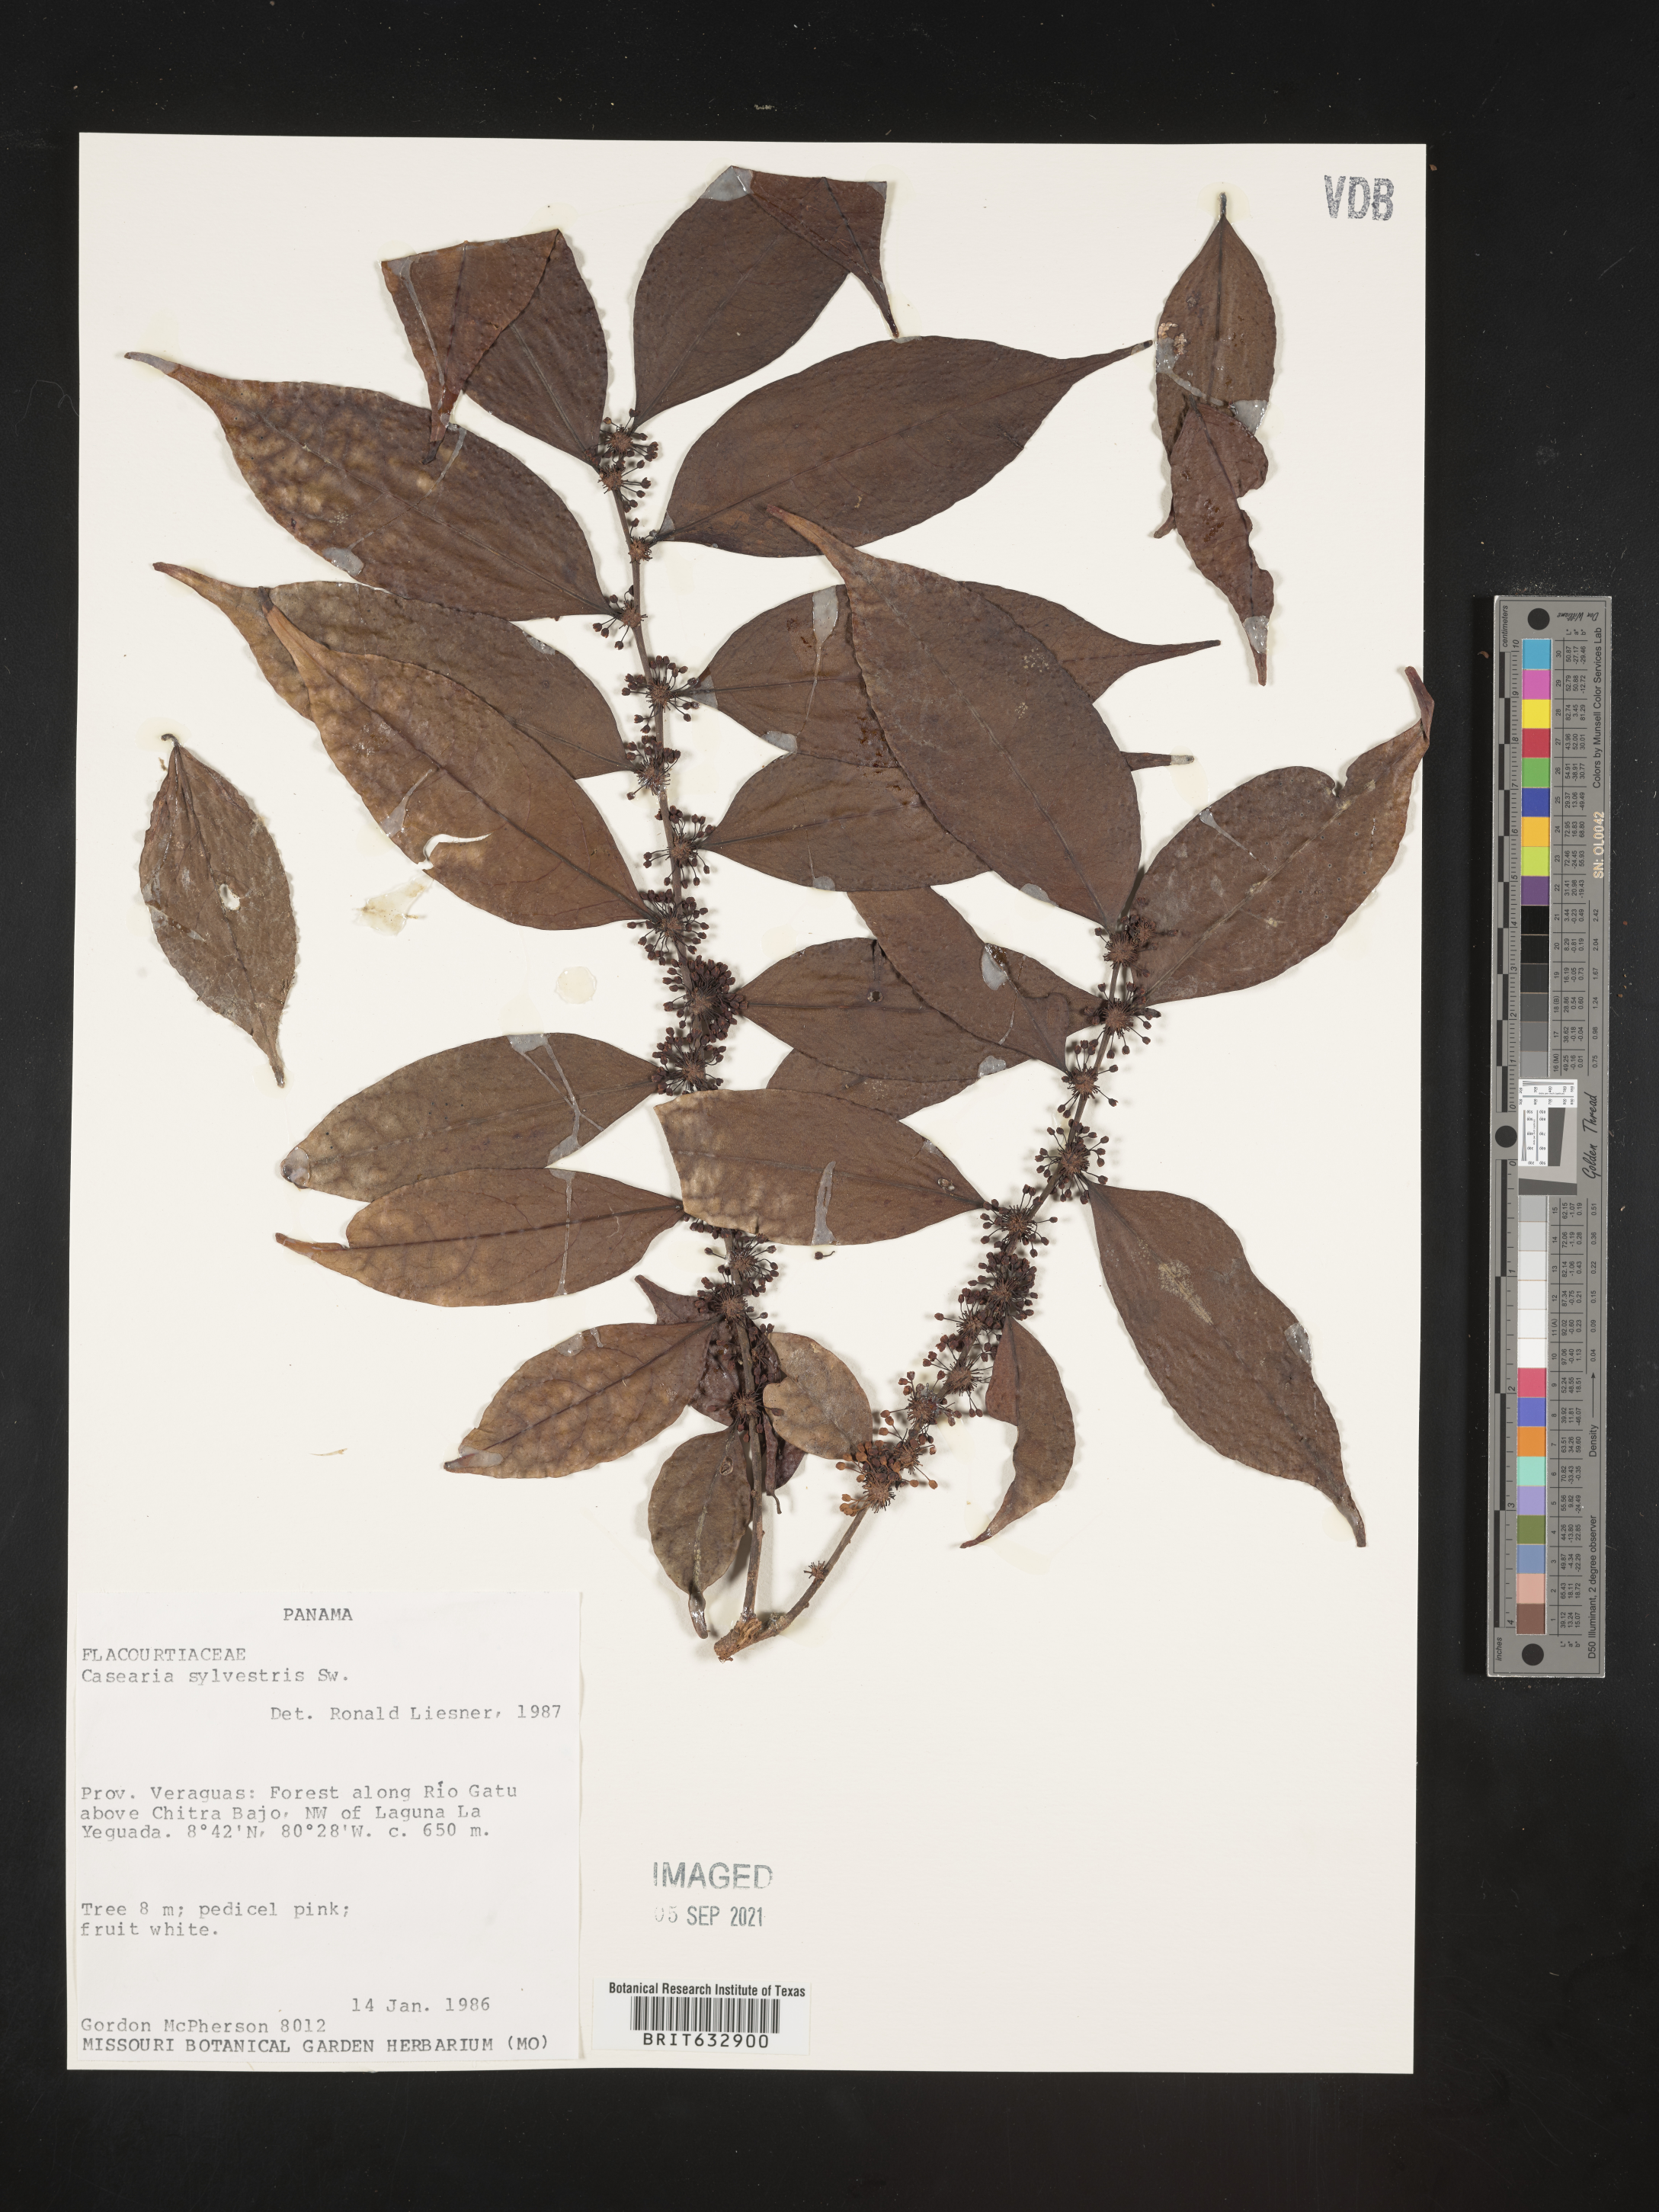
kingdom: Plantae
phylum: Tracheophyta
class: Magnoliopsida
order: Malpighiales
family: Salicaceae
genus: Casearia
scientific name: Casearia
